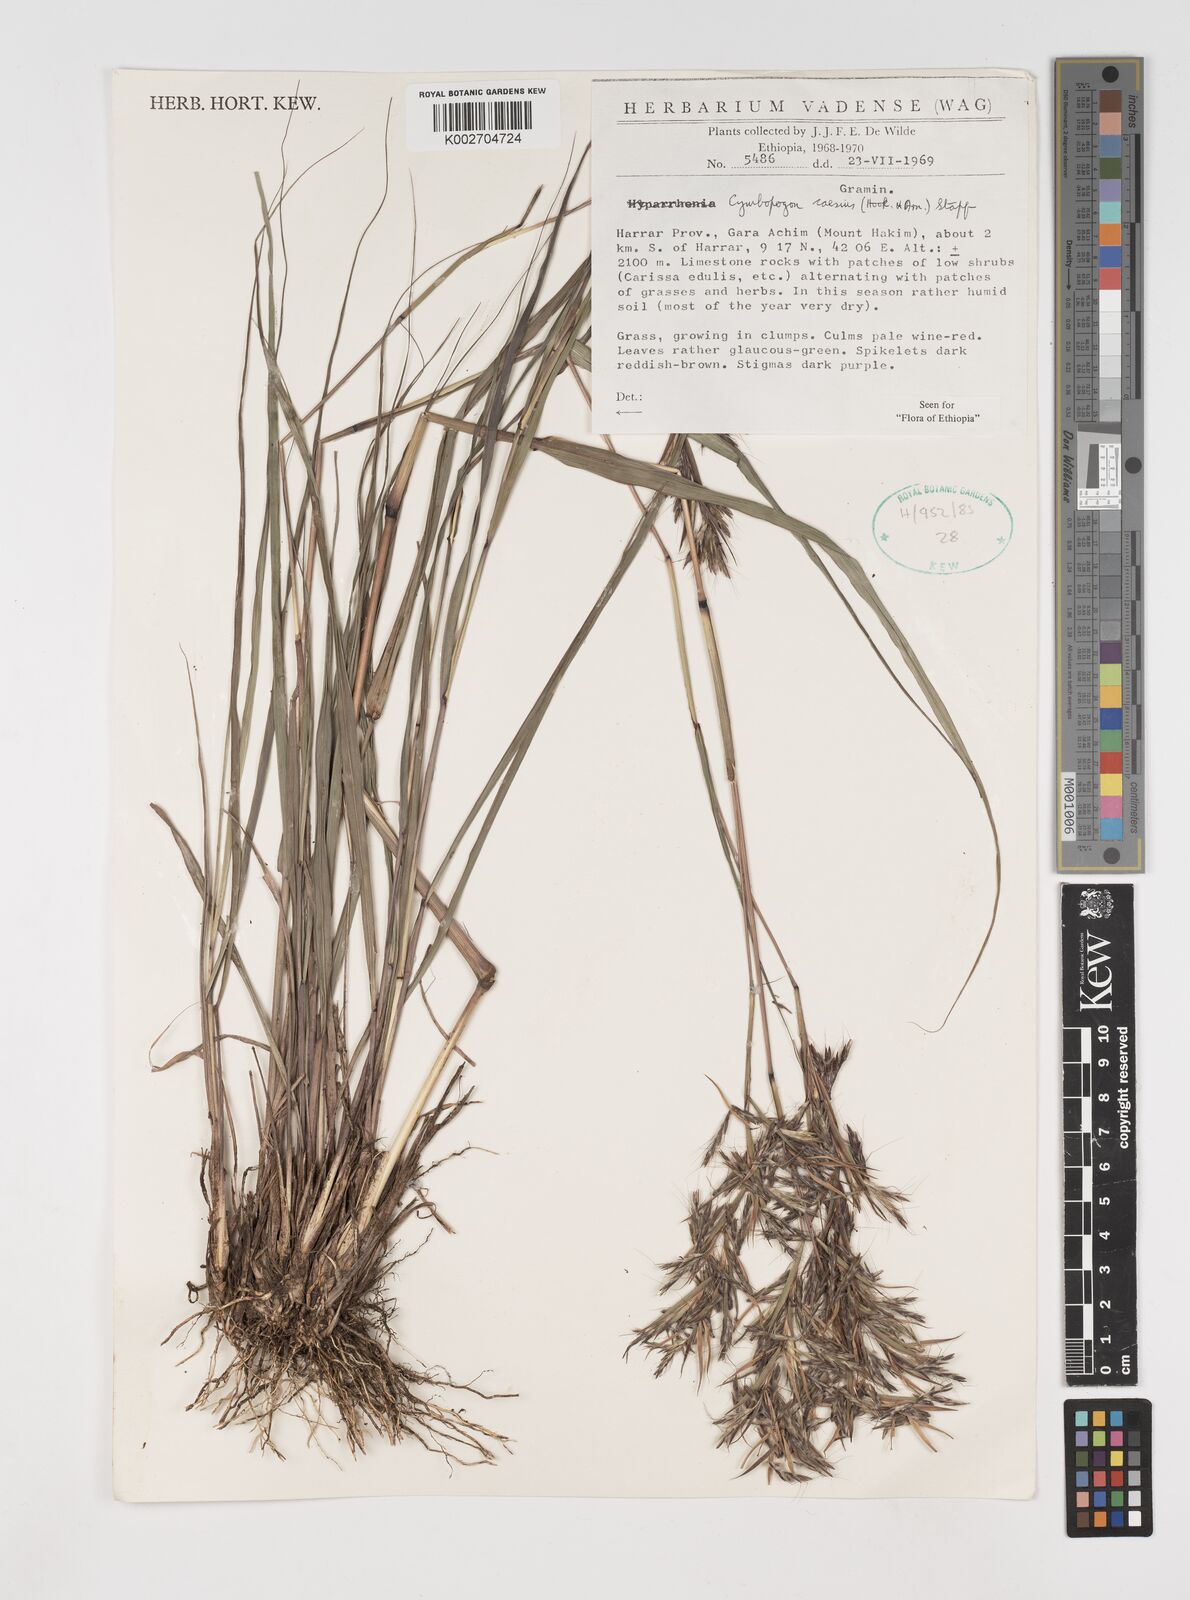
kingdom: Plantae
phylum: Tracheophyta
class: Liliopsida
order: Poales
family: Poaceae
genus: Cymbopogon
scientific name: Cymbopogon caesius
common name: Kachi grass
